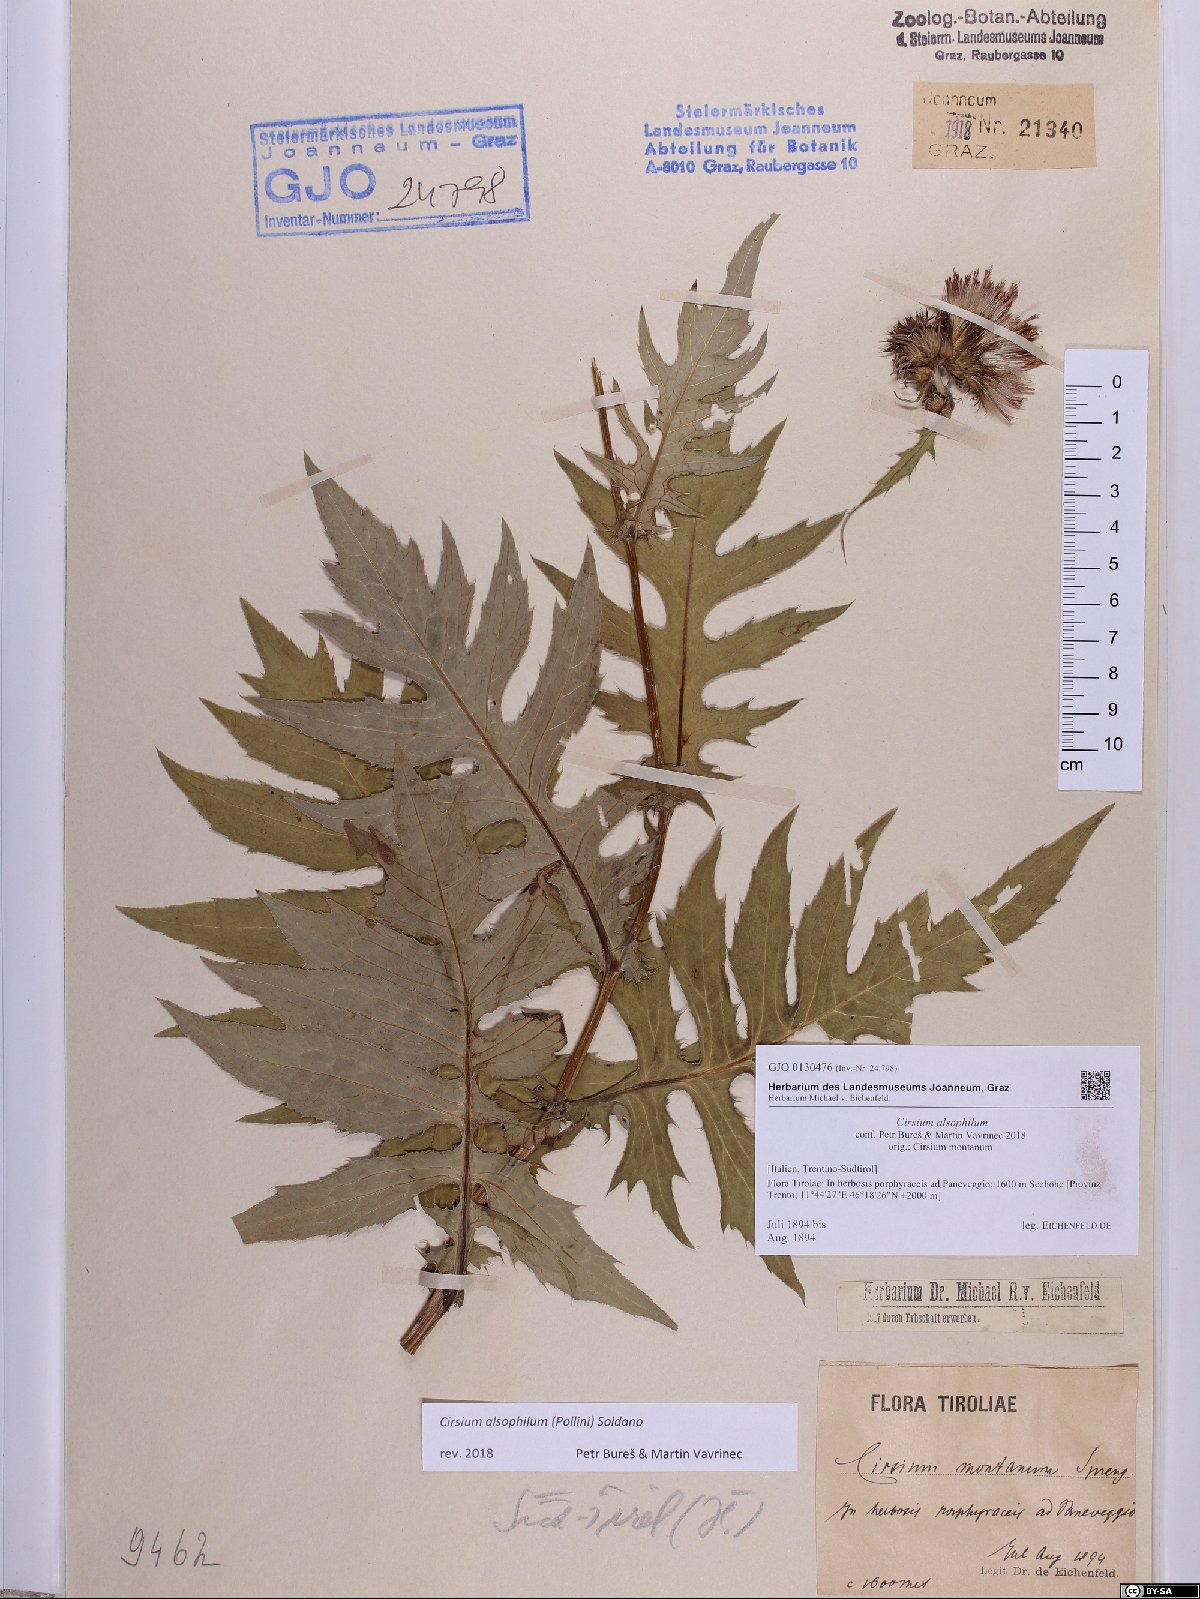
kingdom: Plantae
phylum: Tracheophyta
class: Magnoliopsida
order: Asterales
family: Asteraceae
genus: Cirsium
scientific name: Cirsium alsophilum
